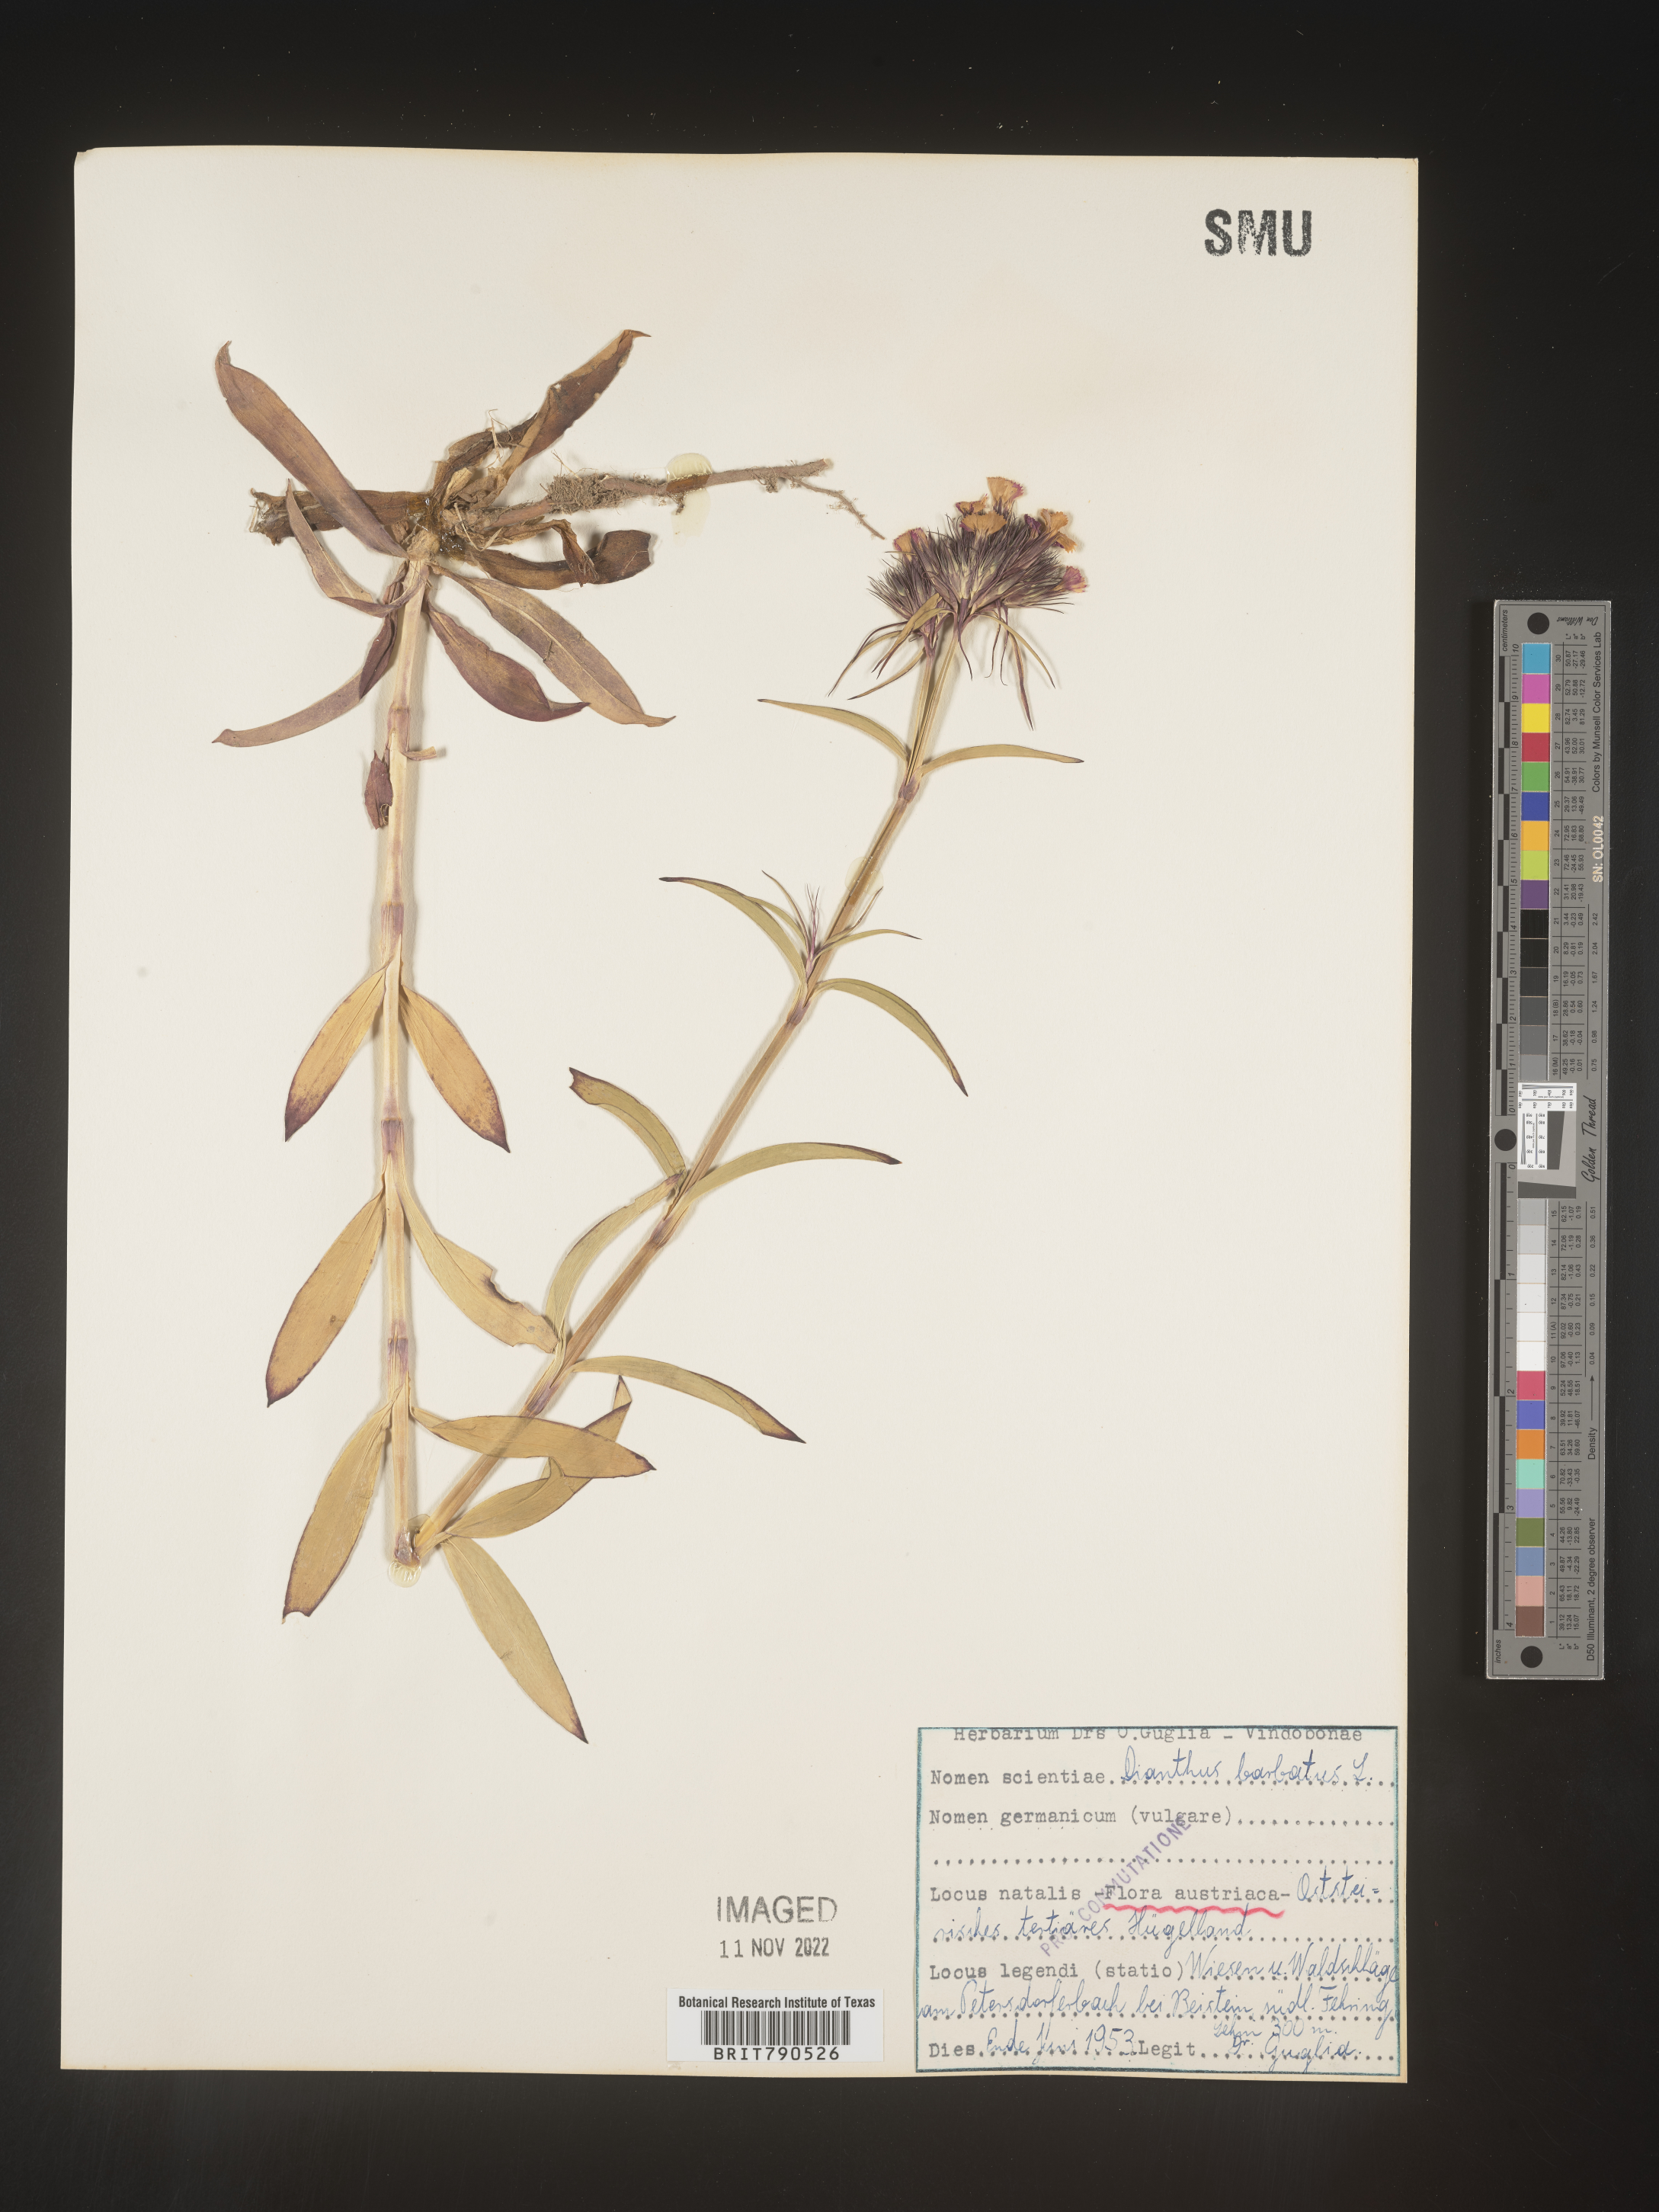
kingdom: Plantae
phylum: Tracheophyta
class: Magnoliopsida
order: Caryophyllales
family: Caryophyllaceae
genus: Dianthus
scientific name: Dianthus
